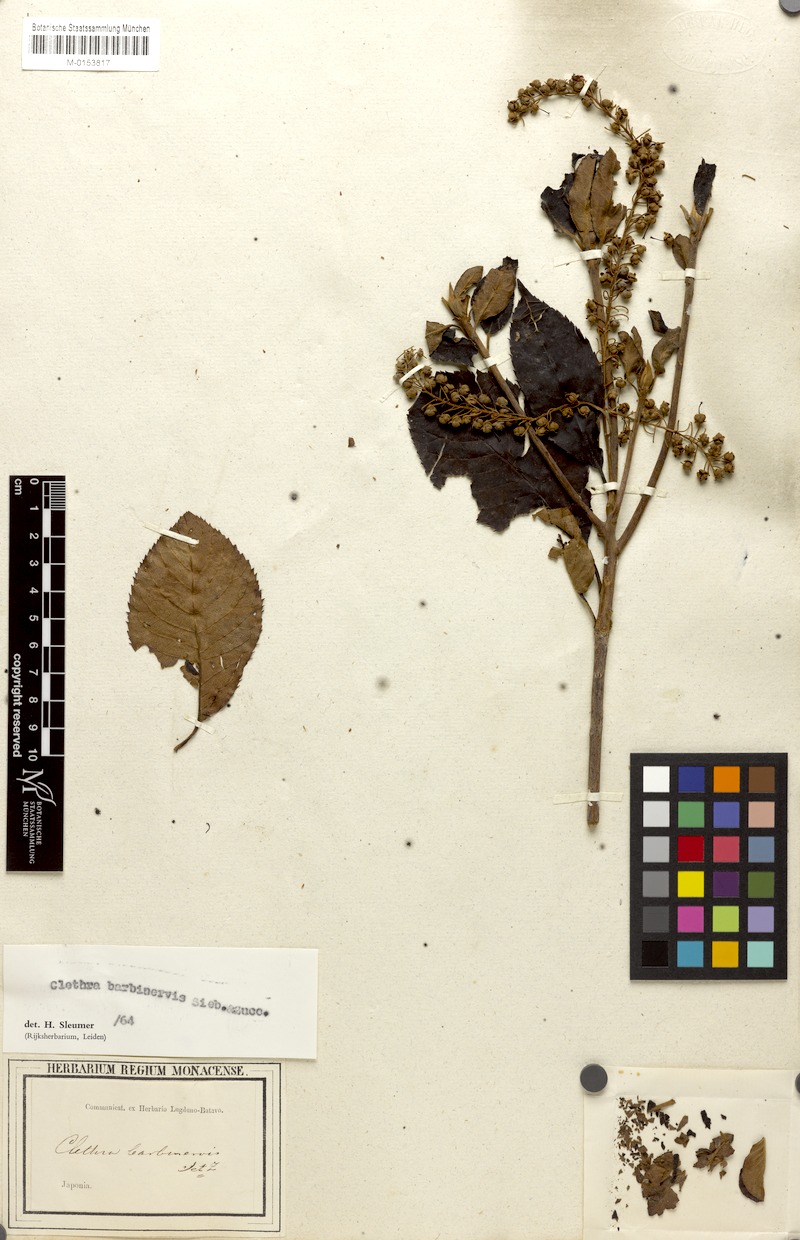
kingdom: Plantae
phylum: Tracheophyta
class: Magnoliopsida
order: Ericales
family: Clethraceae
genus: Clethra
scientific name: Clethra barbinervis
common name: Japanese clethra
